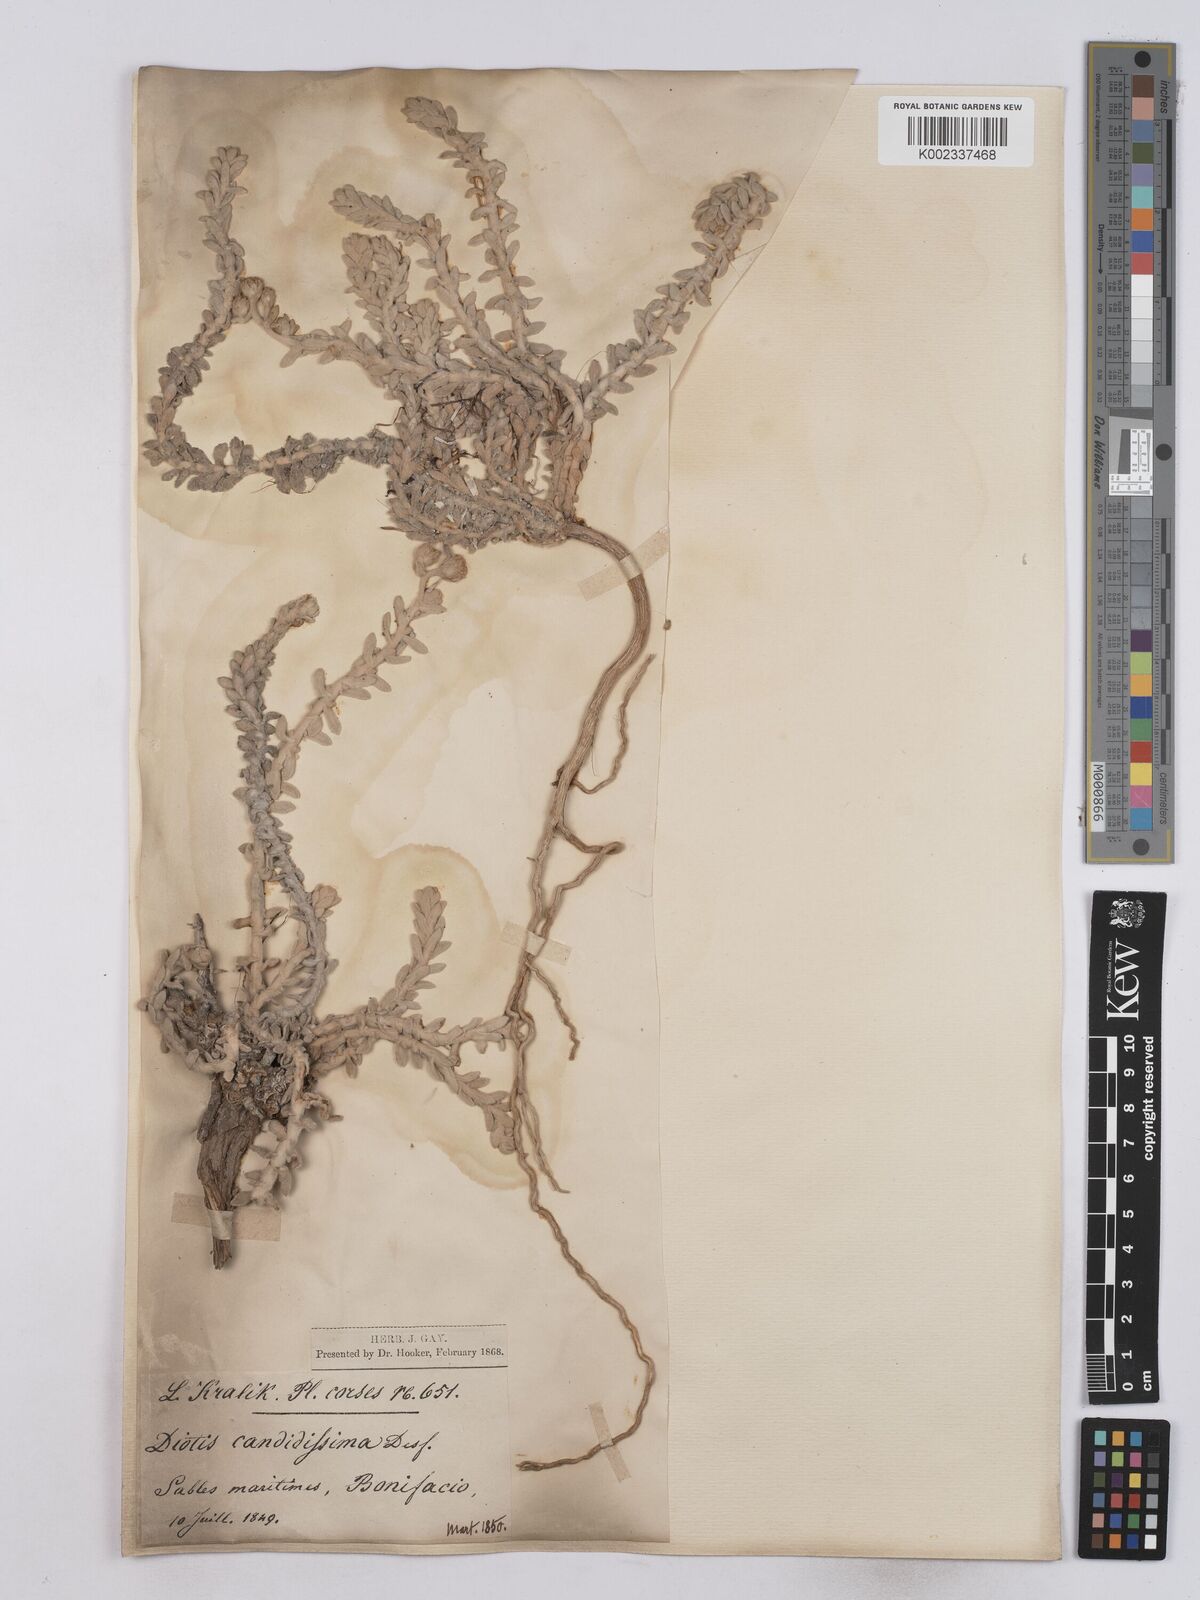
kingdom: Plantae
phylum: Tracheophyta
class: Magnoliopsida
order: Asterales
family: Asteraceae
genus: Achillea
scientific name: Achillea maritima
